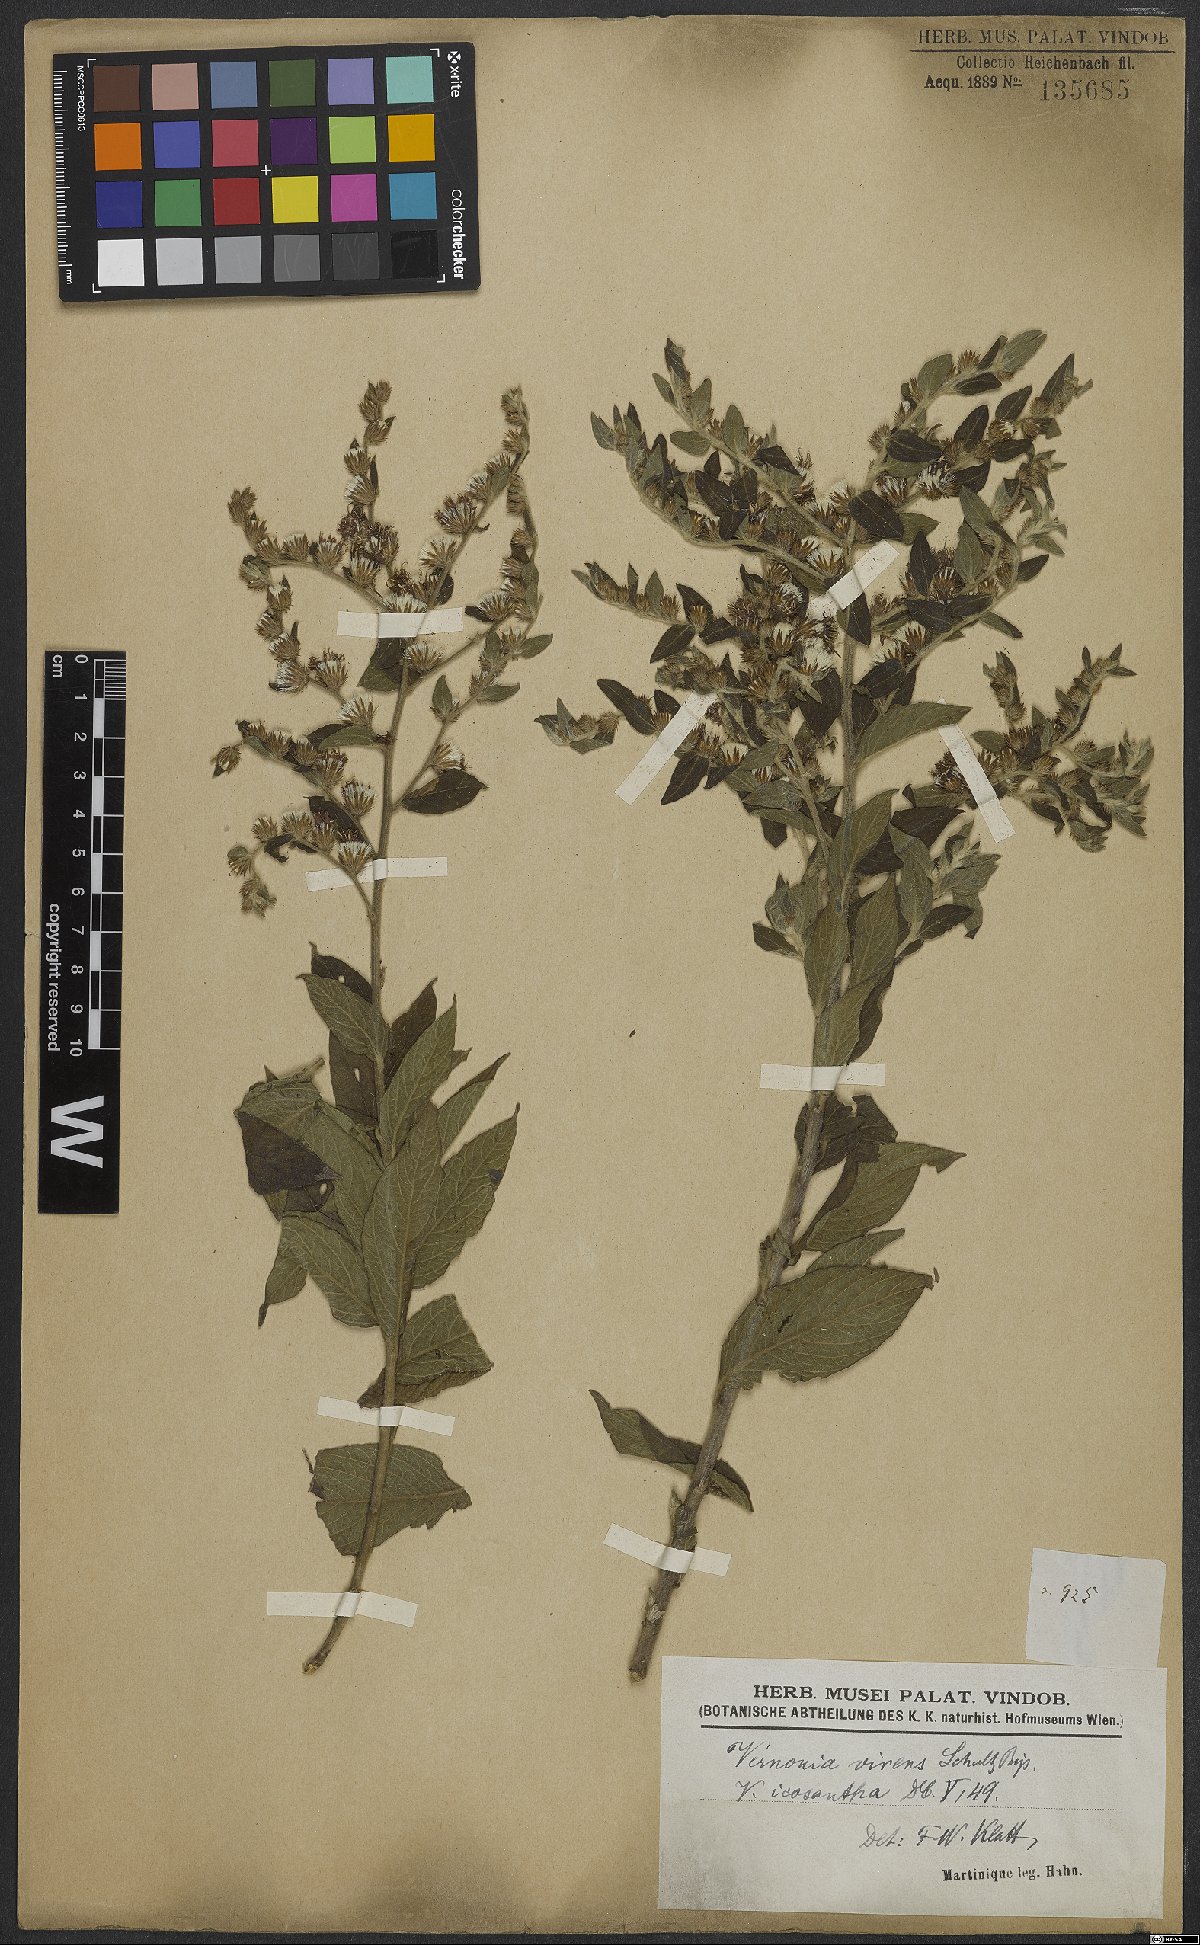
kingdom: Plantae
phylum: Tracheophyta
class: Magnoliopsida
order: Asterales
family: Asteraceae
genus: Lepidaploa
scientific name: Lepidaploa argyropappa
